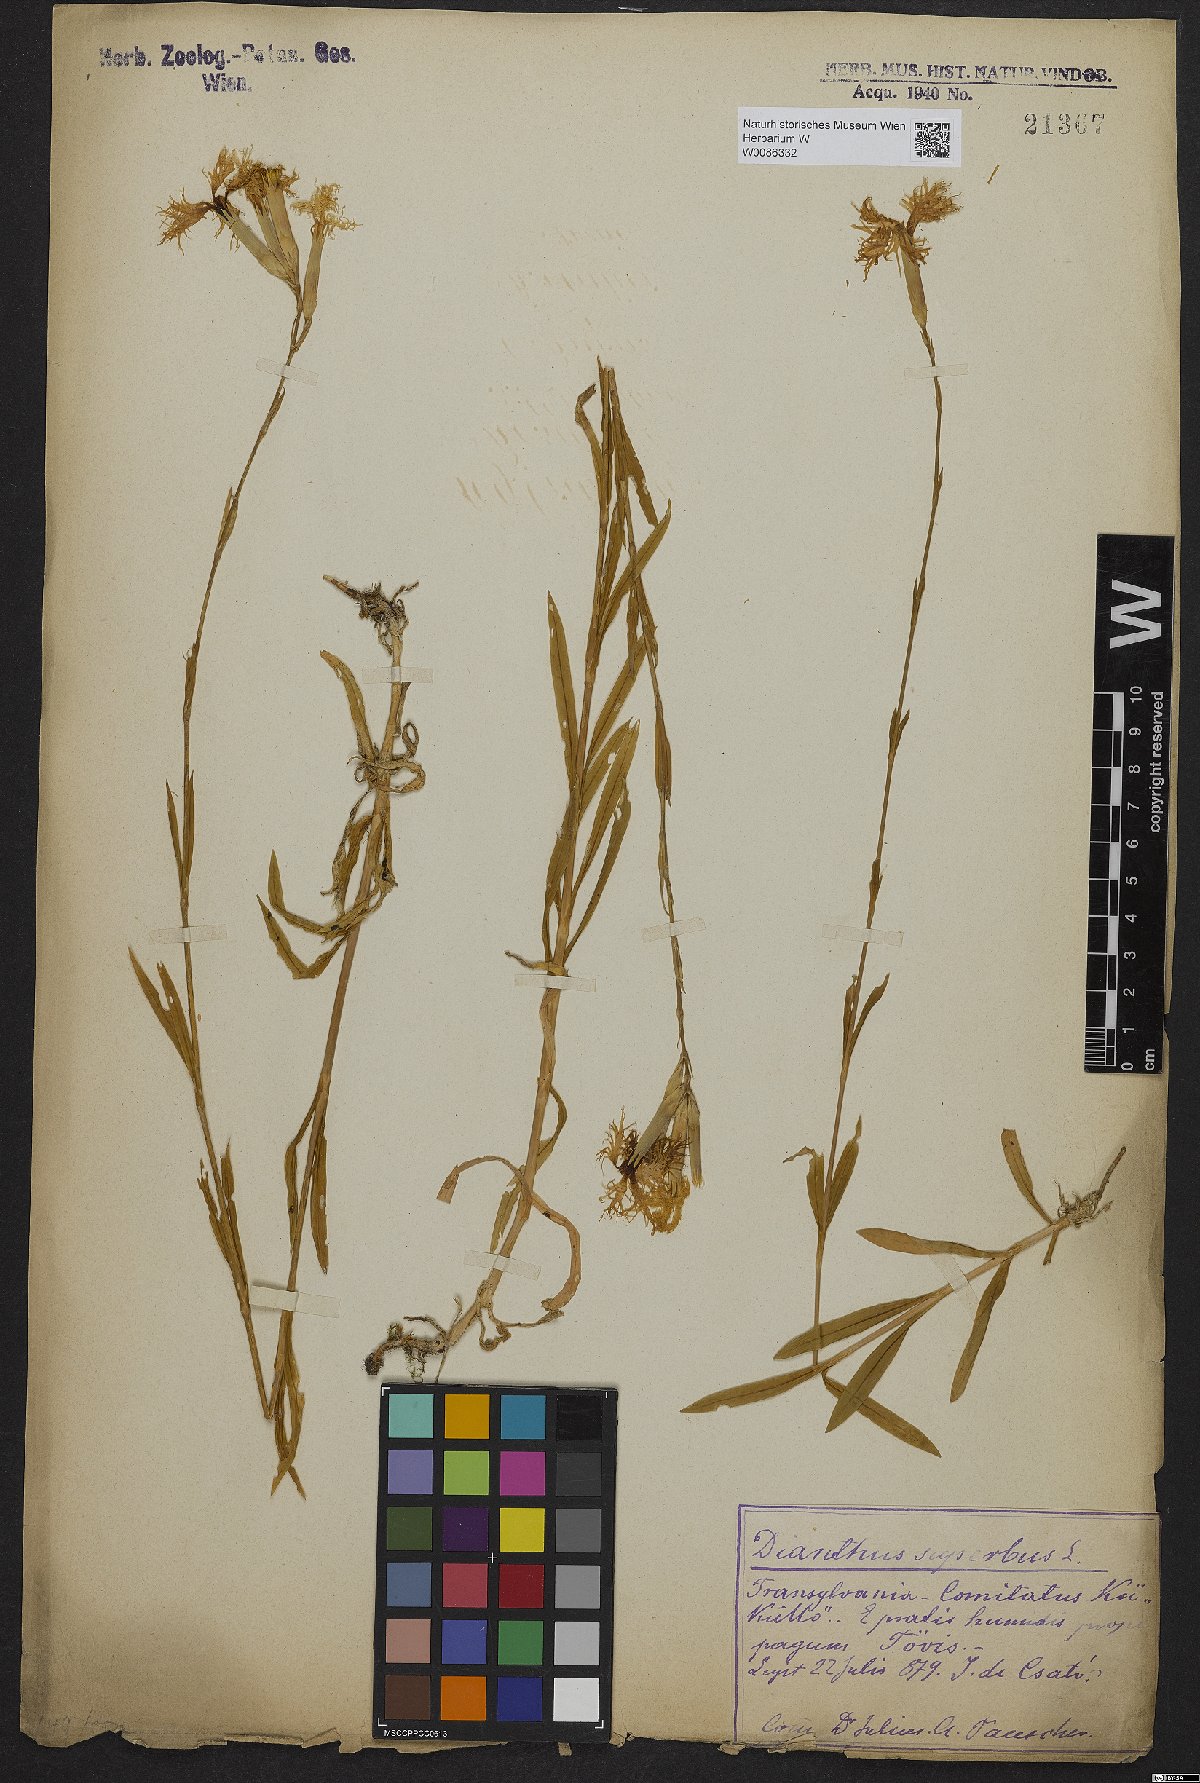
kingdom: Plantae
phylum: Tracheophyta
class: Magnoliopsida
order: Caryophyllales
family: Caryophyllaceae
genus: Dianthus
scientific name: Dianthus superbus
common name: Fringed pink
